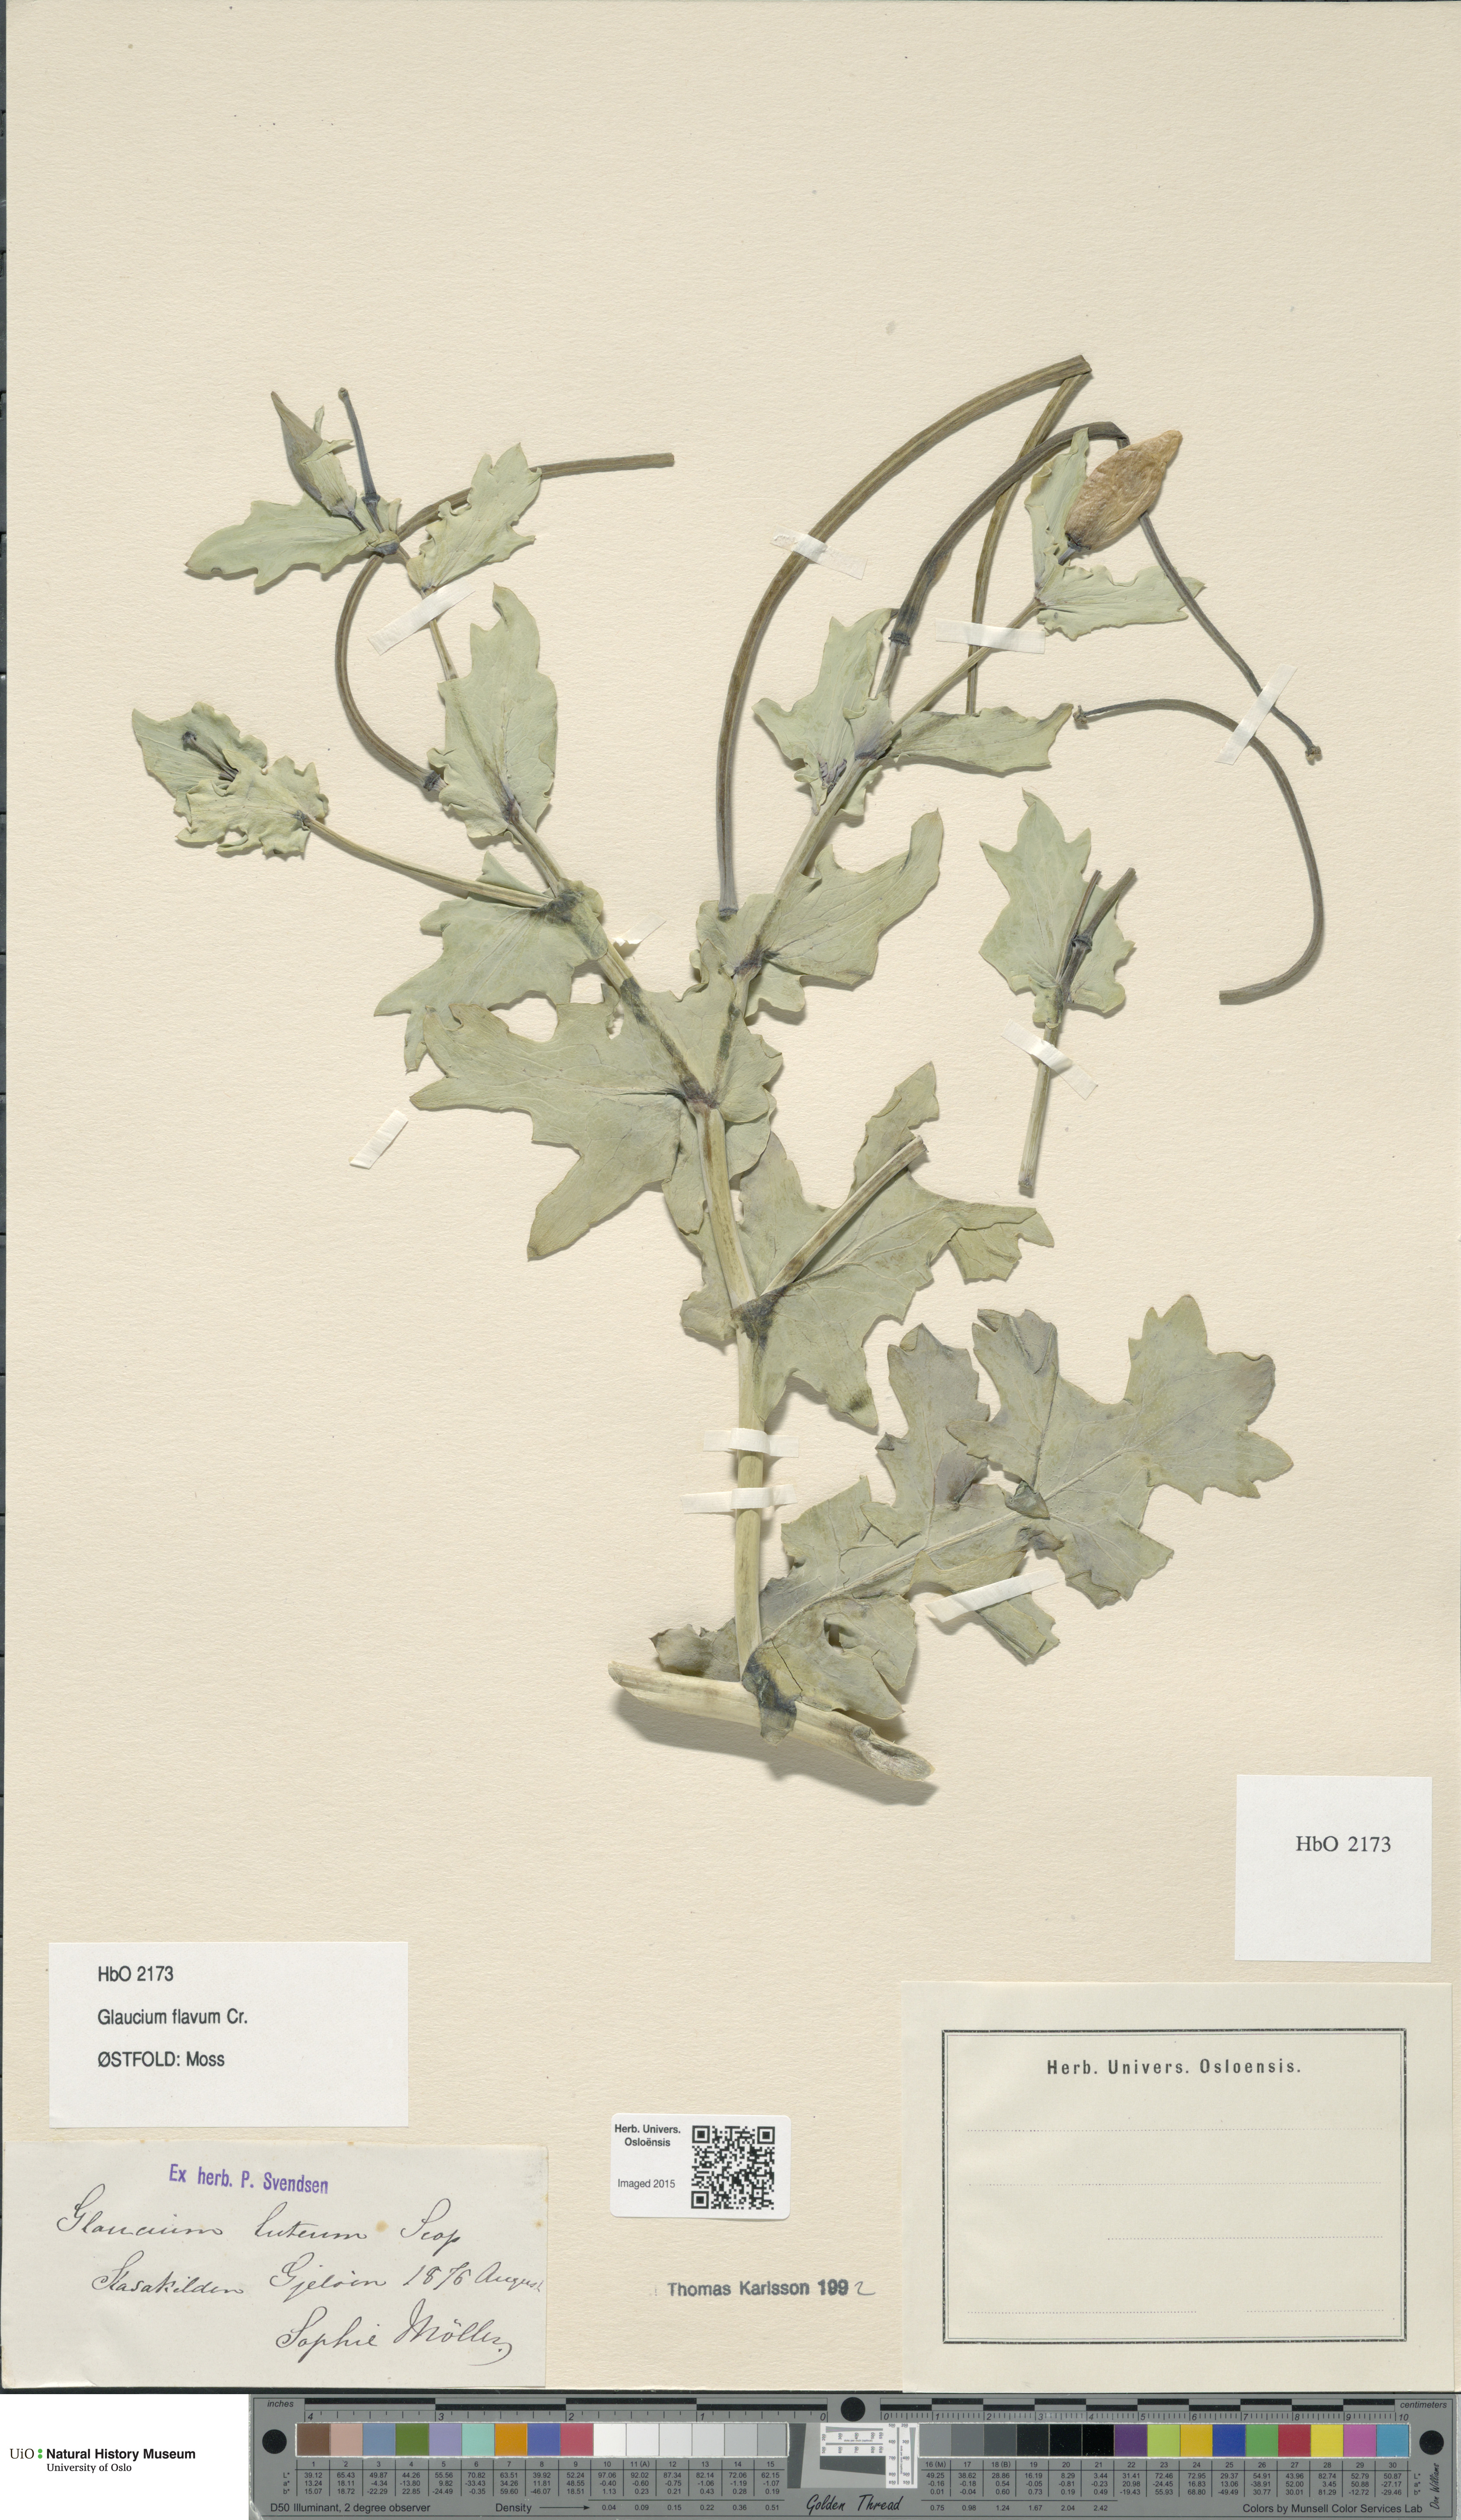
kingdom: Plantae
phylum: Tracheophyta
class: Magnoliopsida
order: Ranunculales
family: Papaveraceae
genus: Glaucium
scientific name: Glaucium flavum
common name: Yellow horned-poppy
